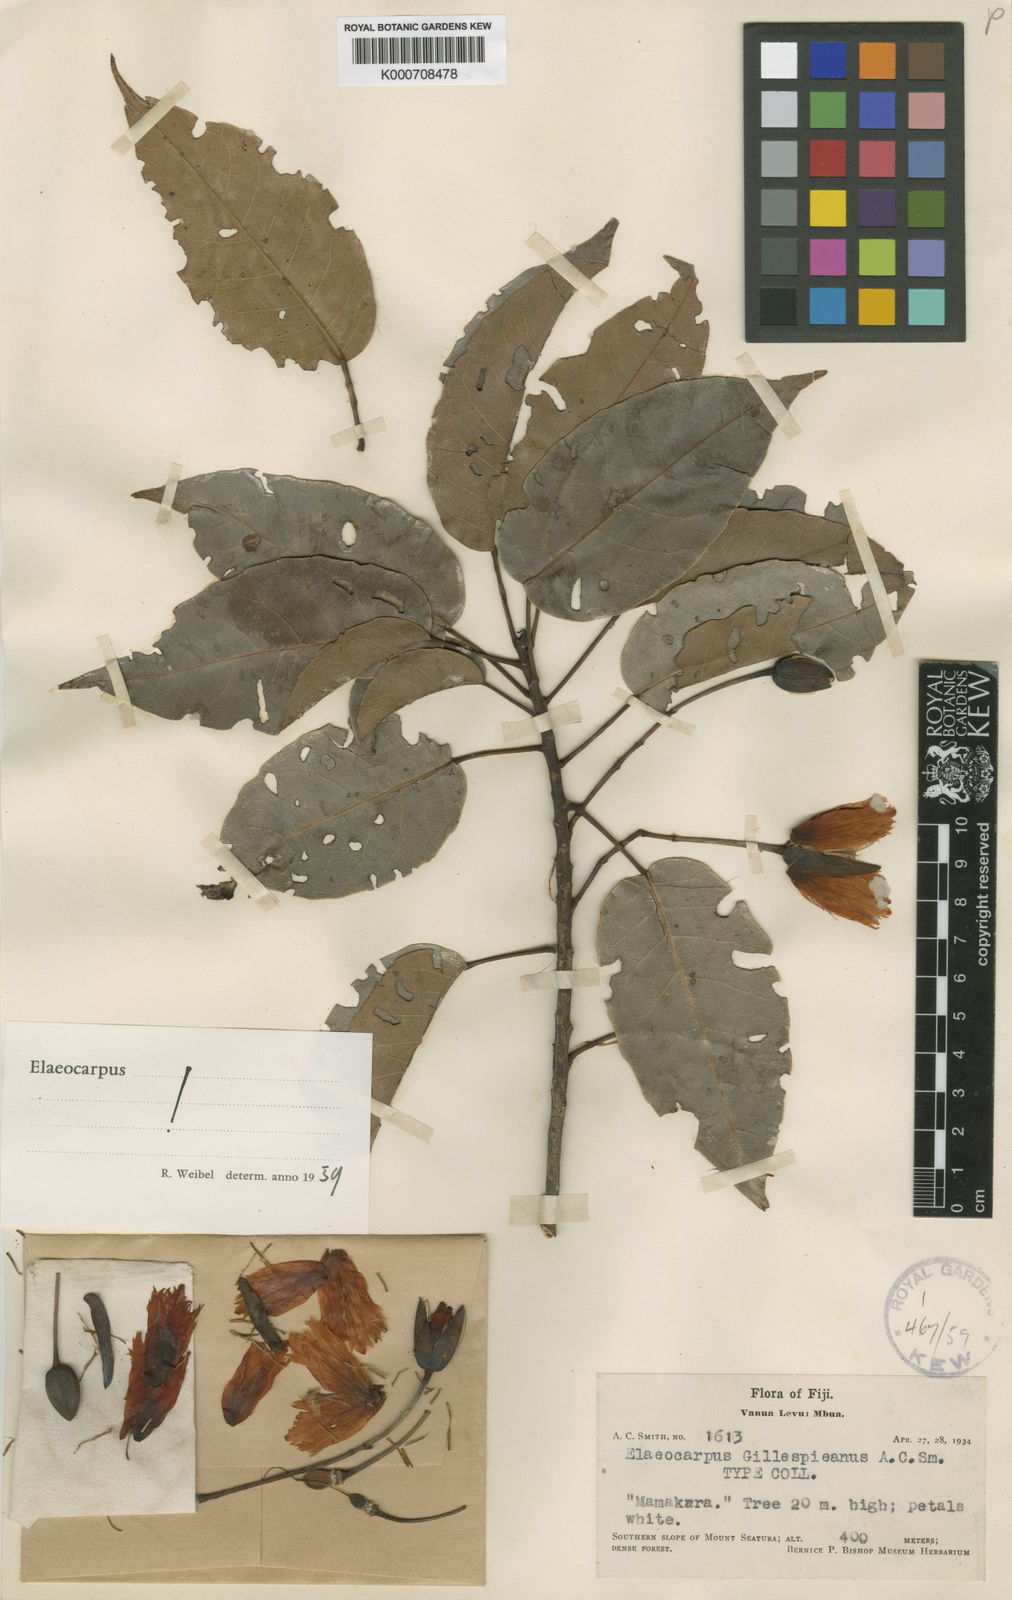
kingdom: Plantae
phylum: Tracheophyta
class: Magnoliopsida
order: Oxalidales
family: Elaeocarpaceae
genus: Elaeocarpus
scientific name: Elaeocarpus gillespieanus
